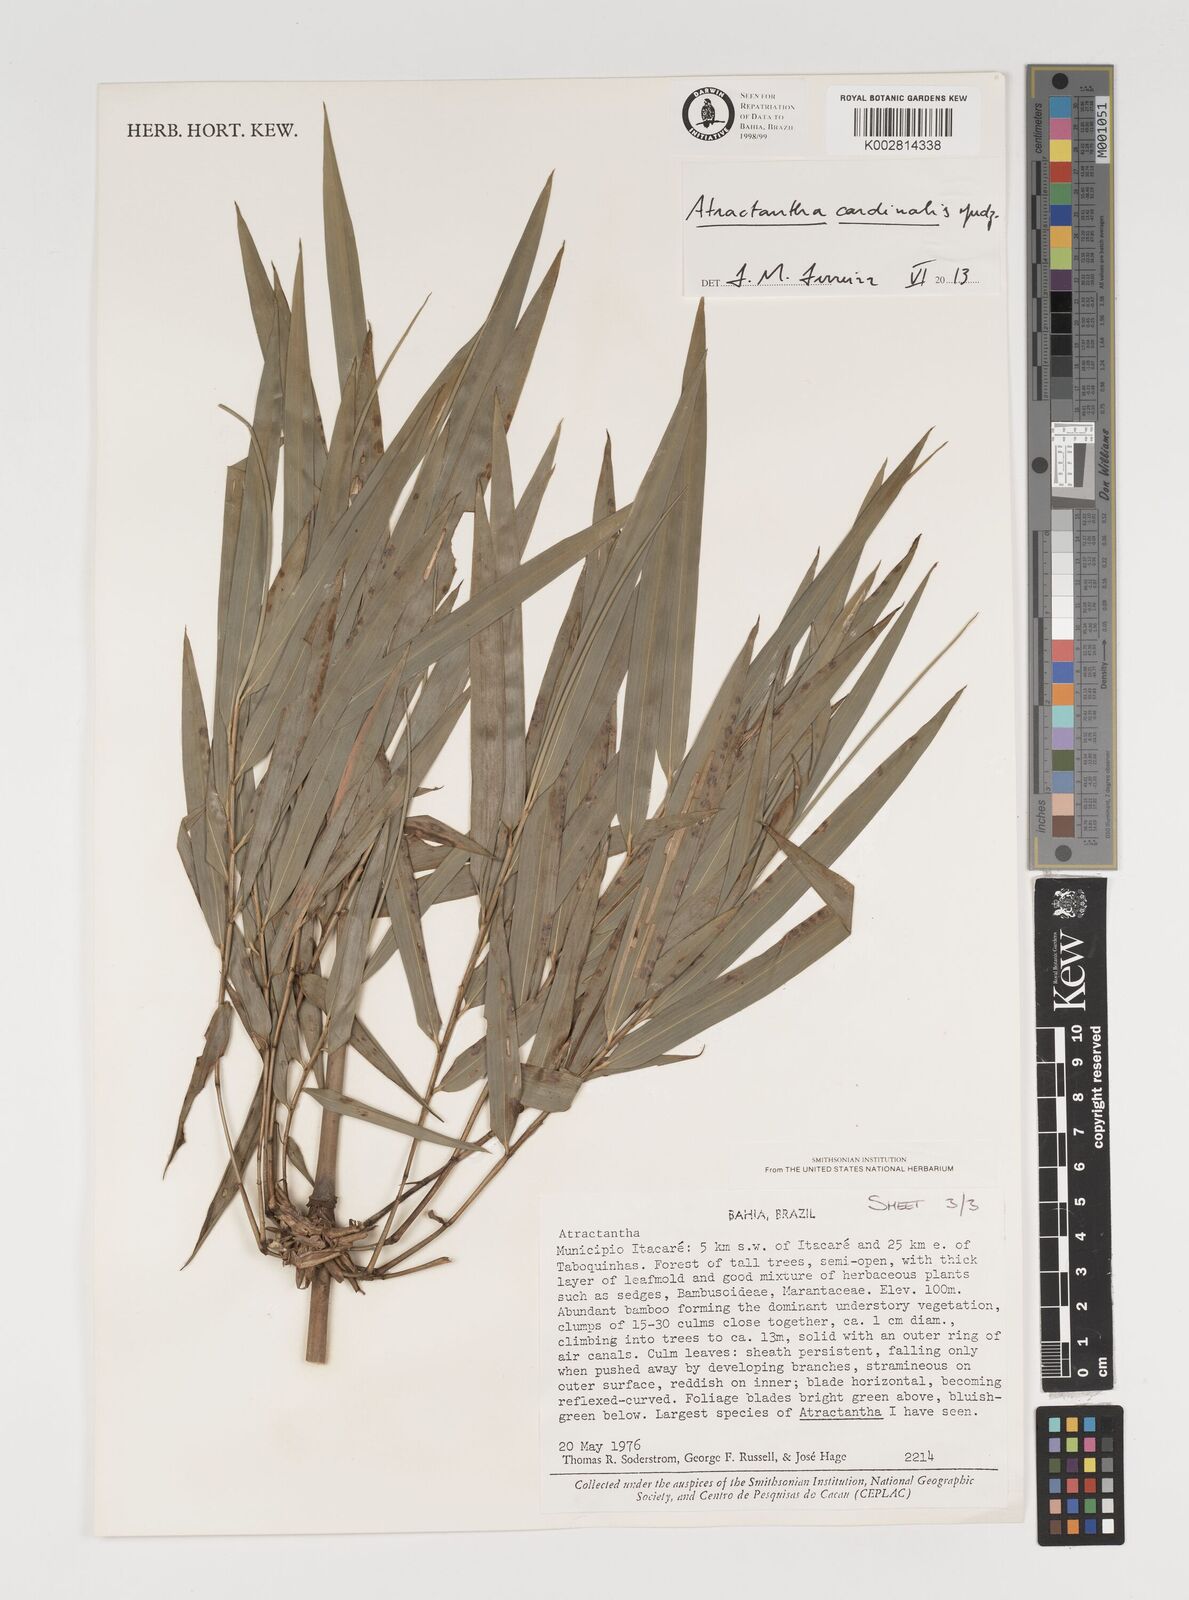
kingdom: Plantae
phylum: Tracheophyta
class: Liliopsida
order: Poales
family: Poaceae
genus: Atractantha
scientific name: Atractantha aureolanata
